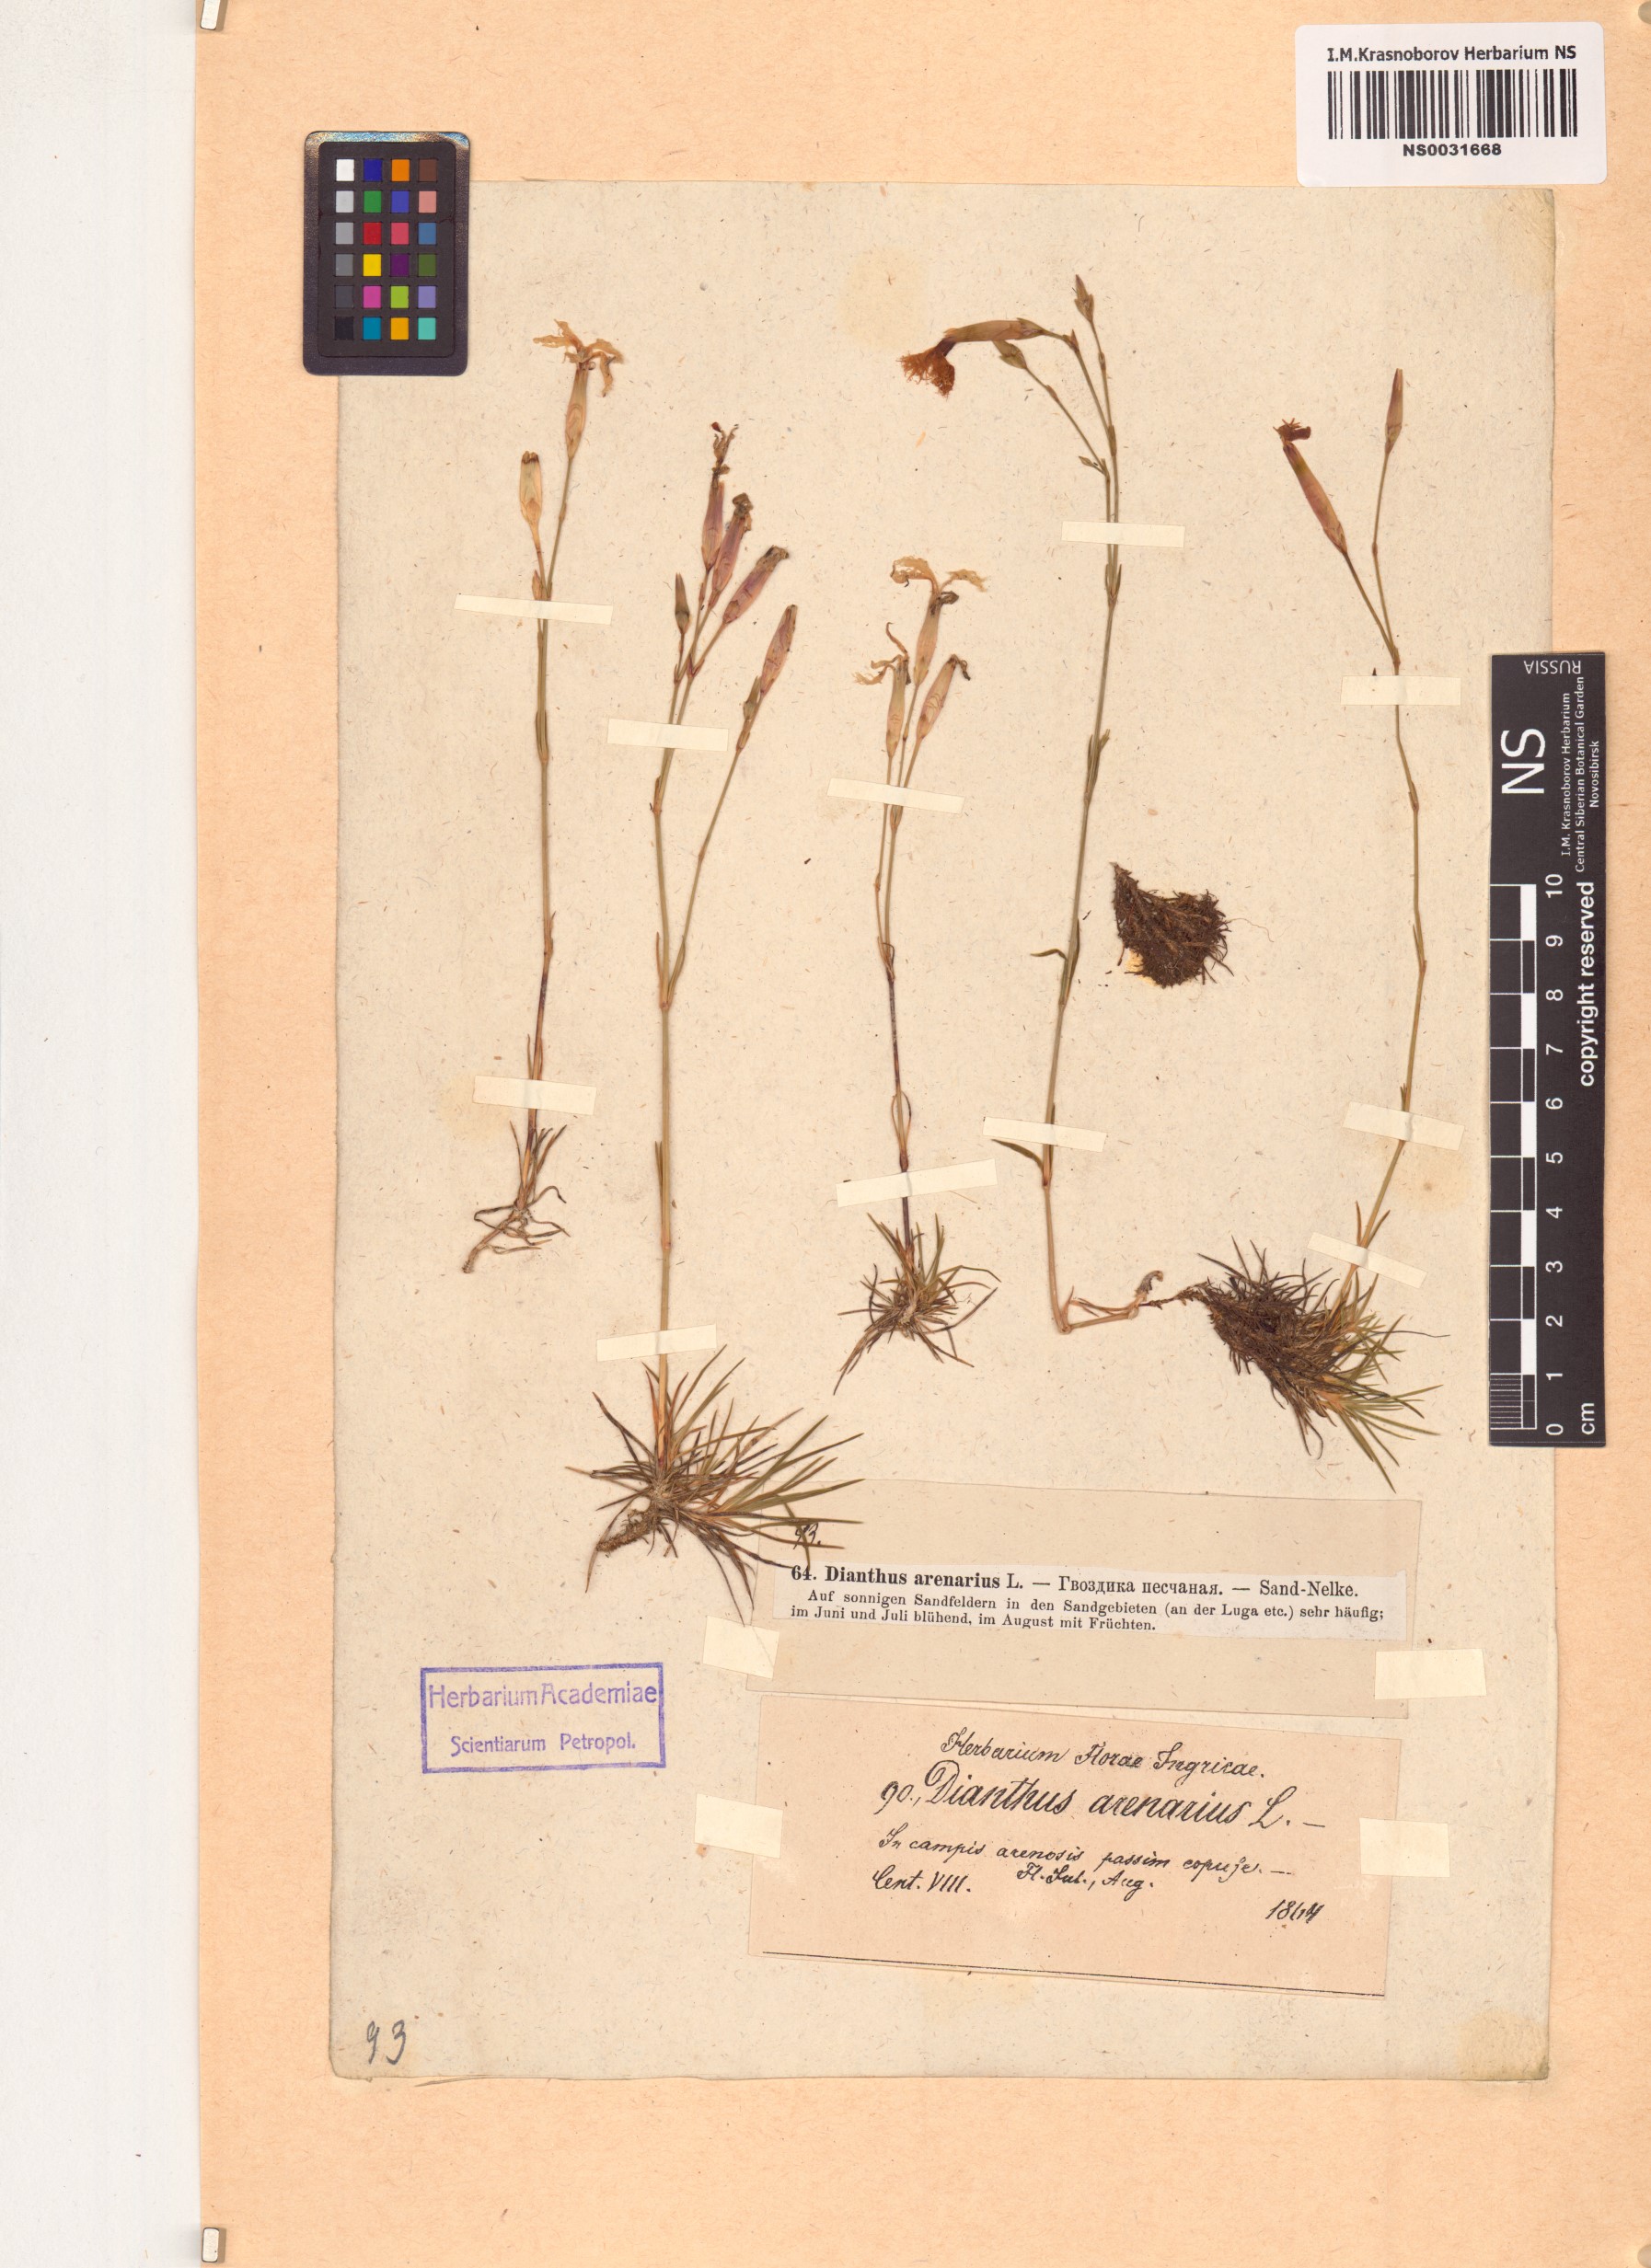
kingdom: Plantae
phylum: Tracheophyta
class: Magnoliopsida
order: Caryophyllales
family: Caryophyllaceae
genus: Dianthus
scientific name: Dianthus arenarius
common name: Stone pink
